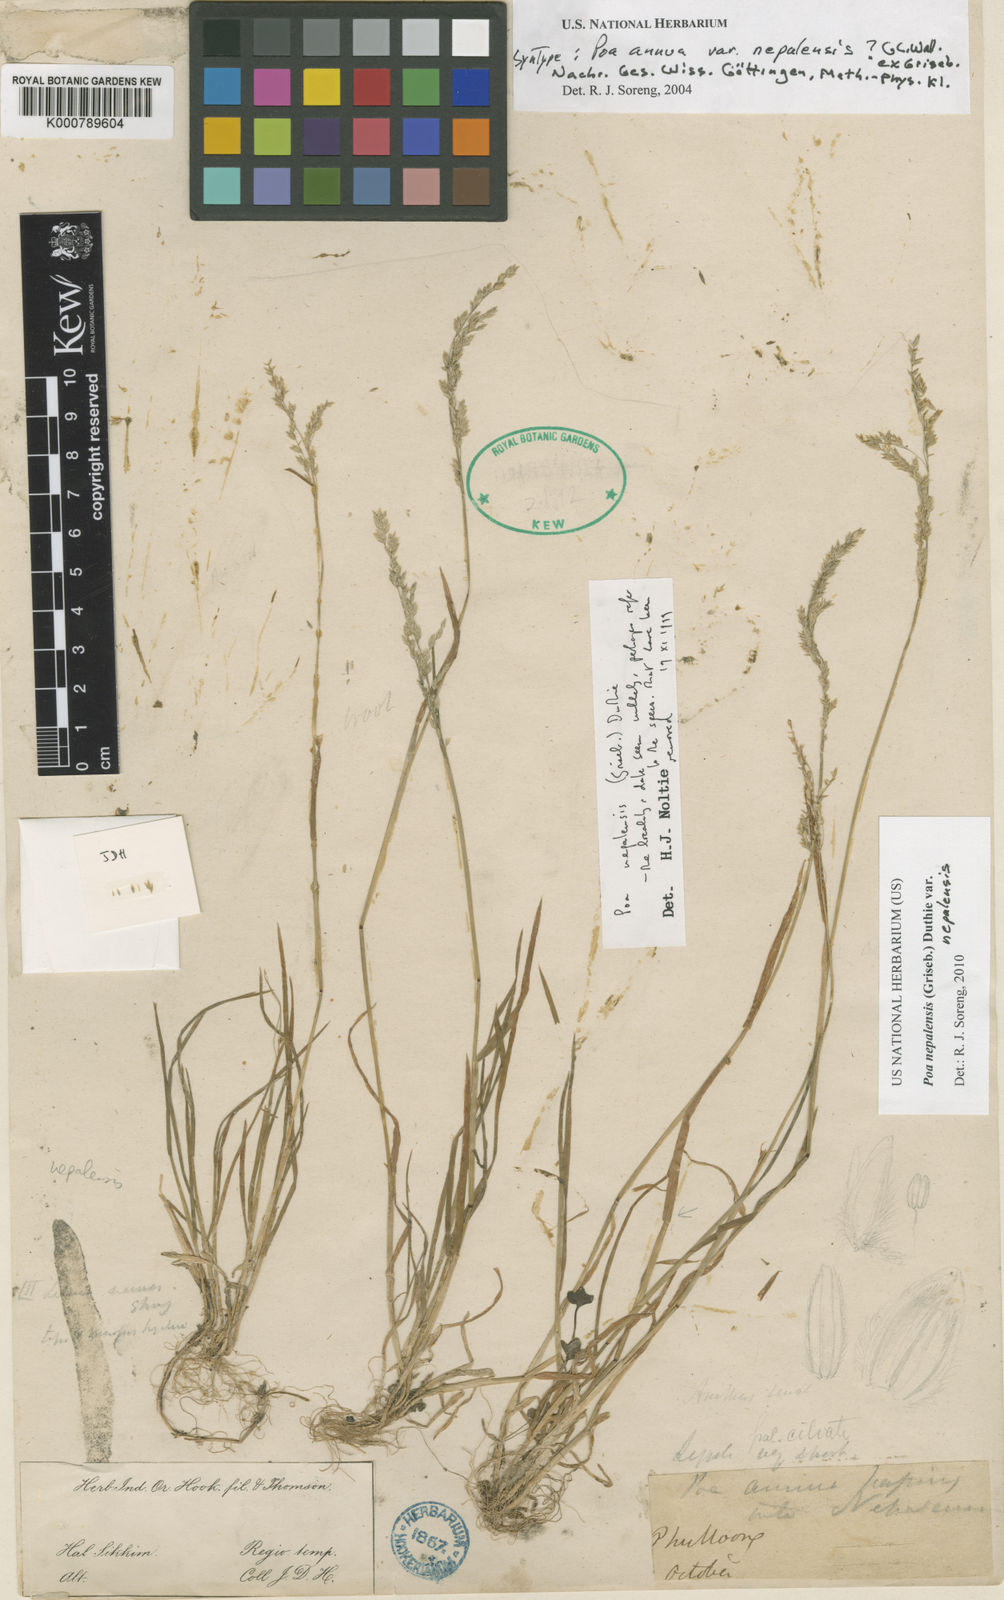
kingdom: Plantae
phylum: Tracheophyta
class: Liliopsida
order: Poales
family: Poaceae
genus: Poa
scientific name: Poa nepalensis
